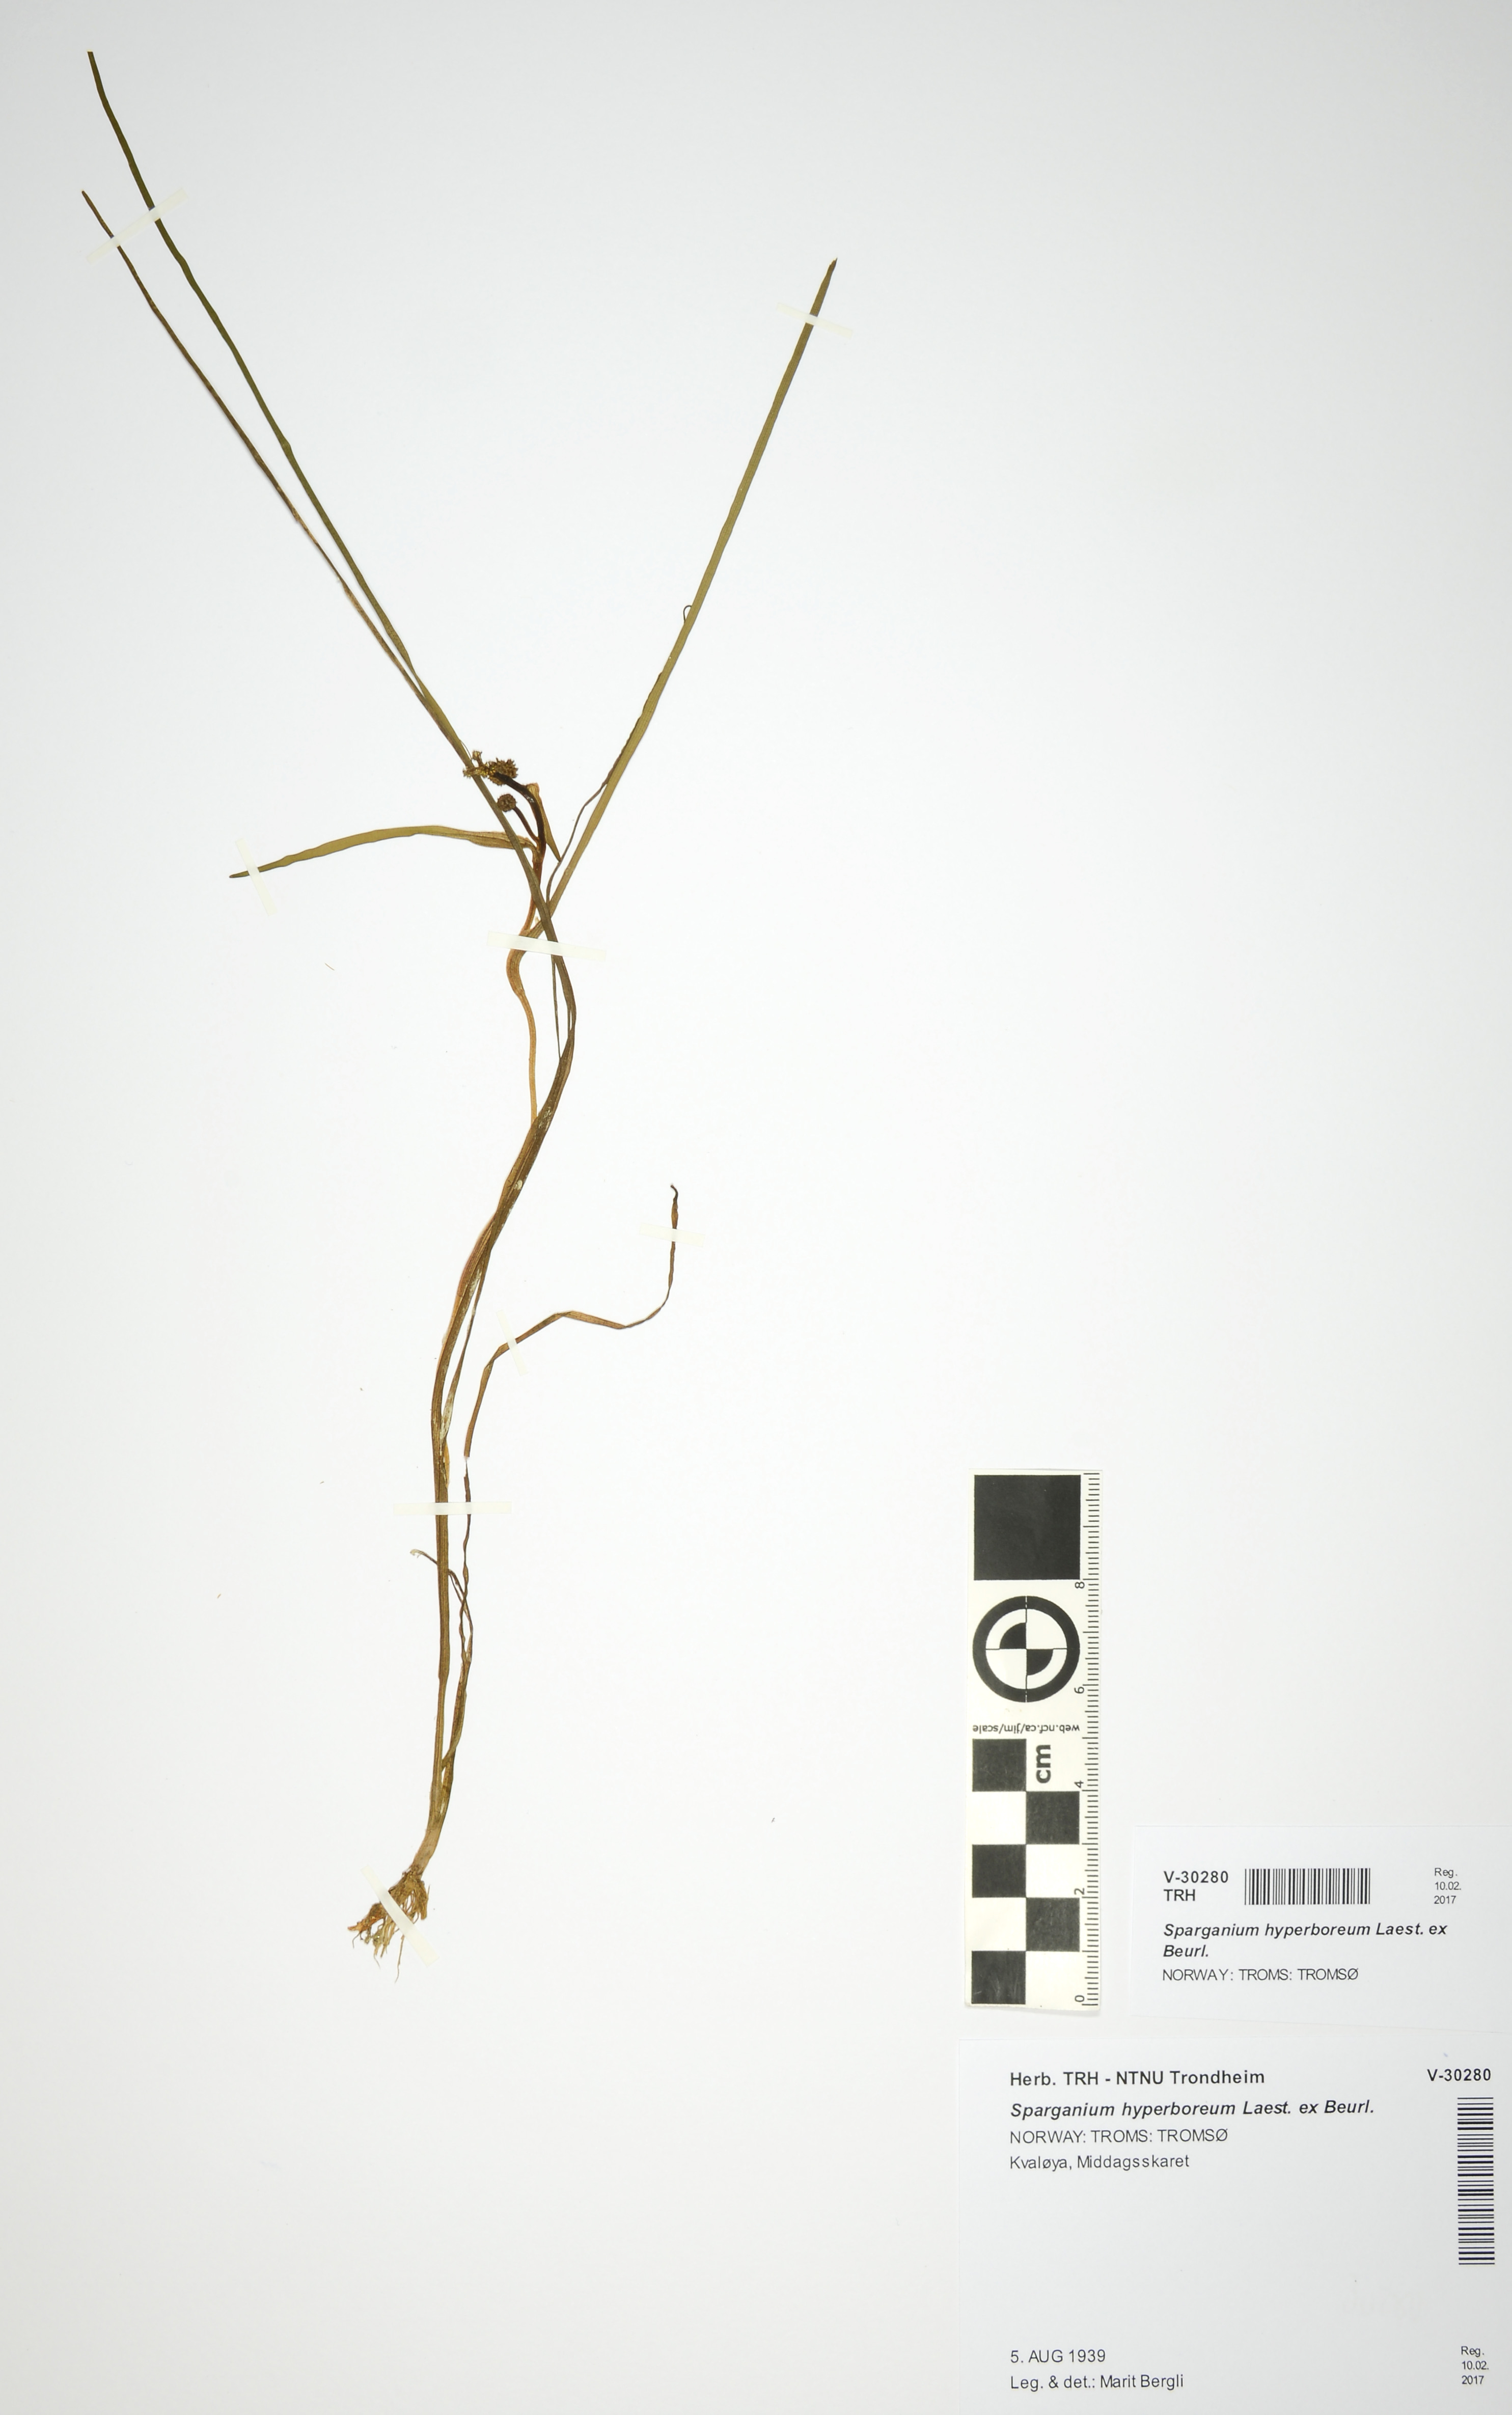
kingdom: Plantae
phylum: Tracheophyta
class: Liliopsida
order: Poales
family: Typhaceae
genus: Sparganium
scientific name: Sparganium hyperboreum
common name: Arctic burreed
